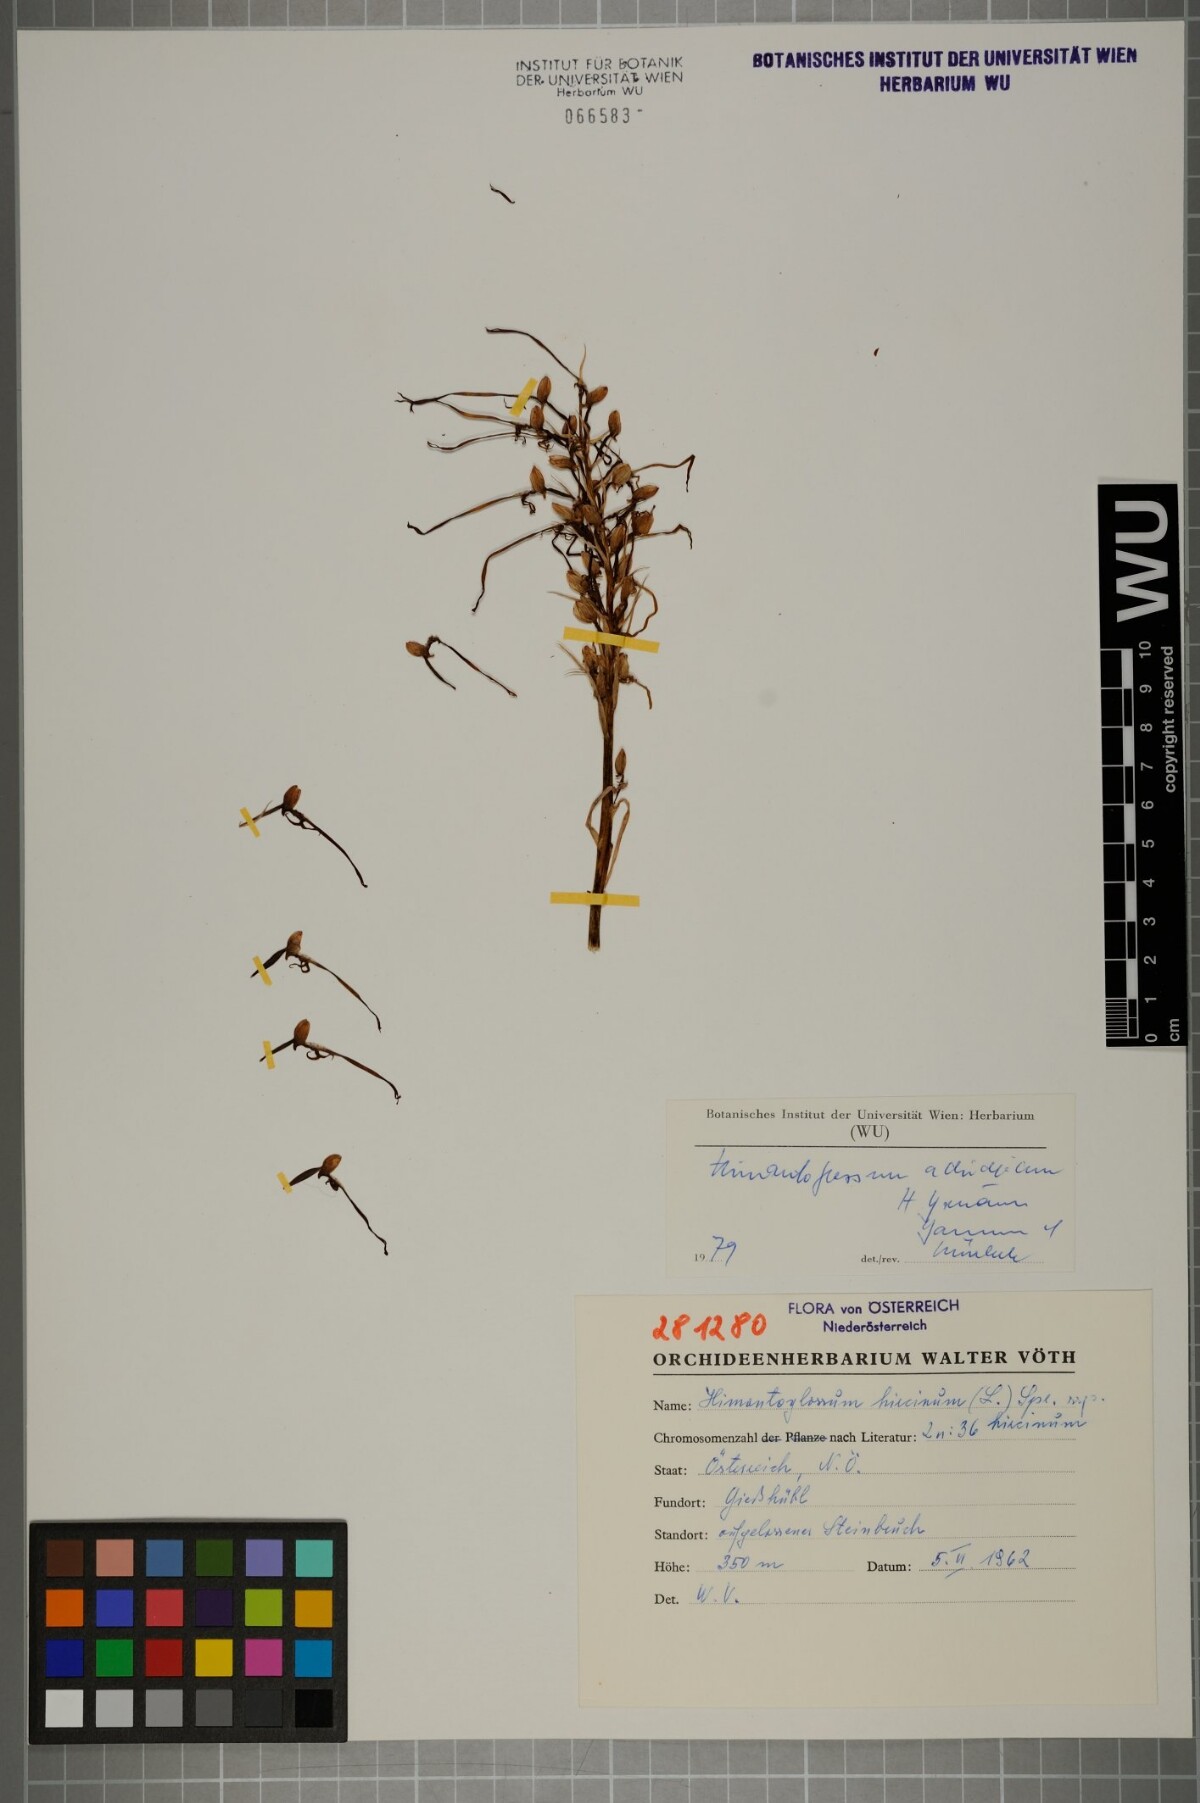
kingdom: Plantae
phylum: Tracheophyta
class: Liliopsida
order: Asparagales
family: Orchidaceae
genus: Himantoglossum
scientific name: Himantoglossum adriaticum
